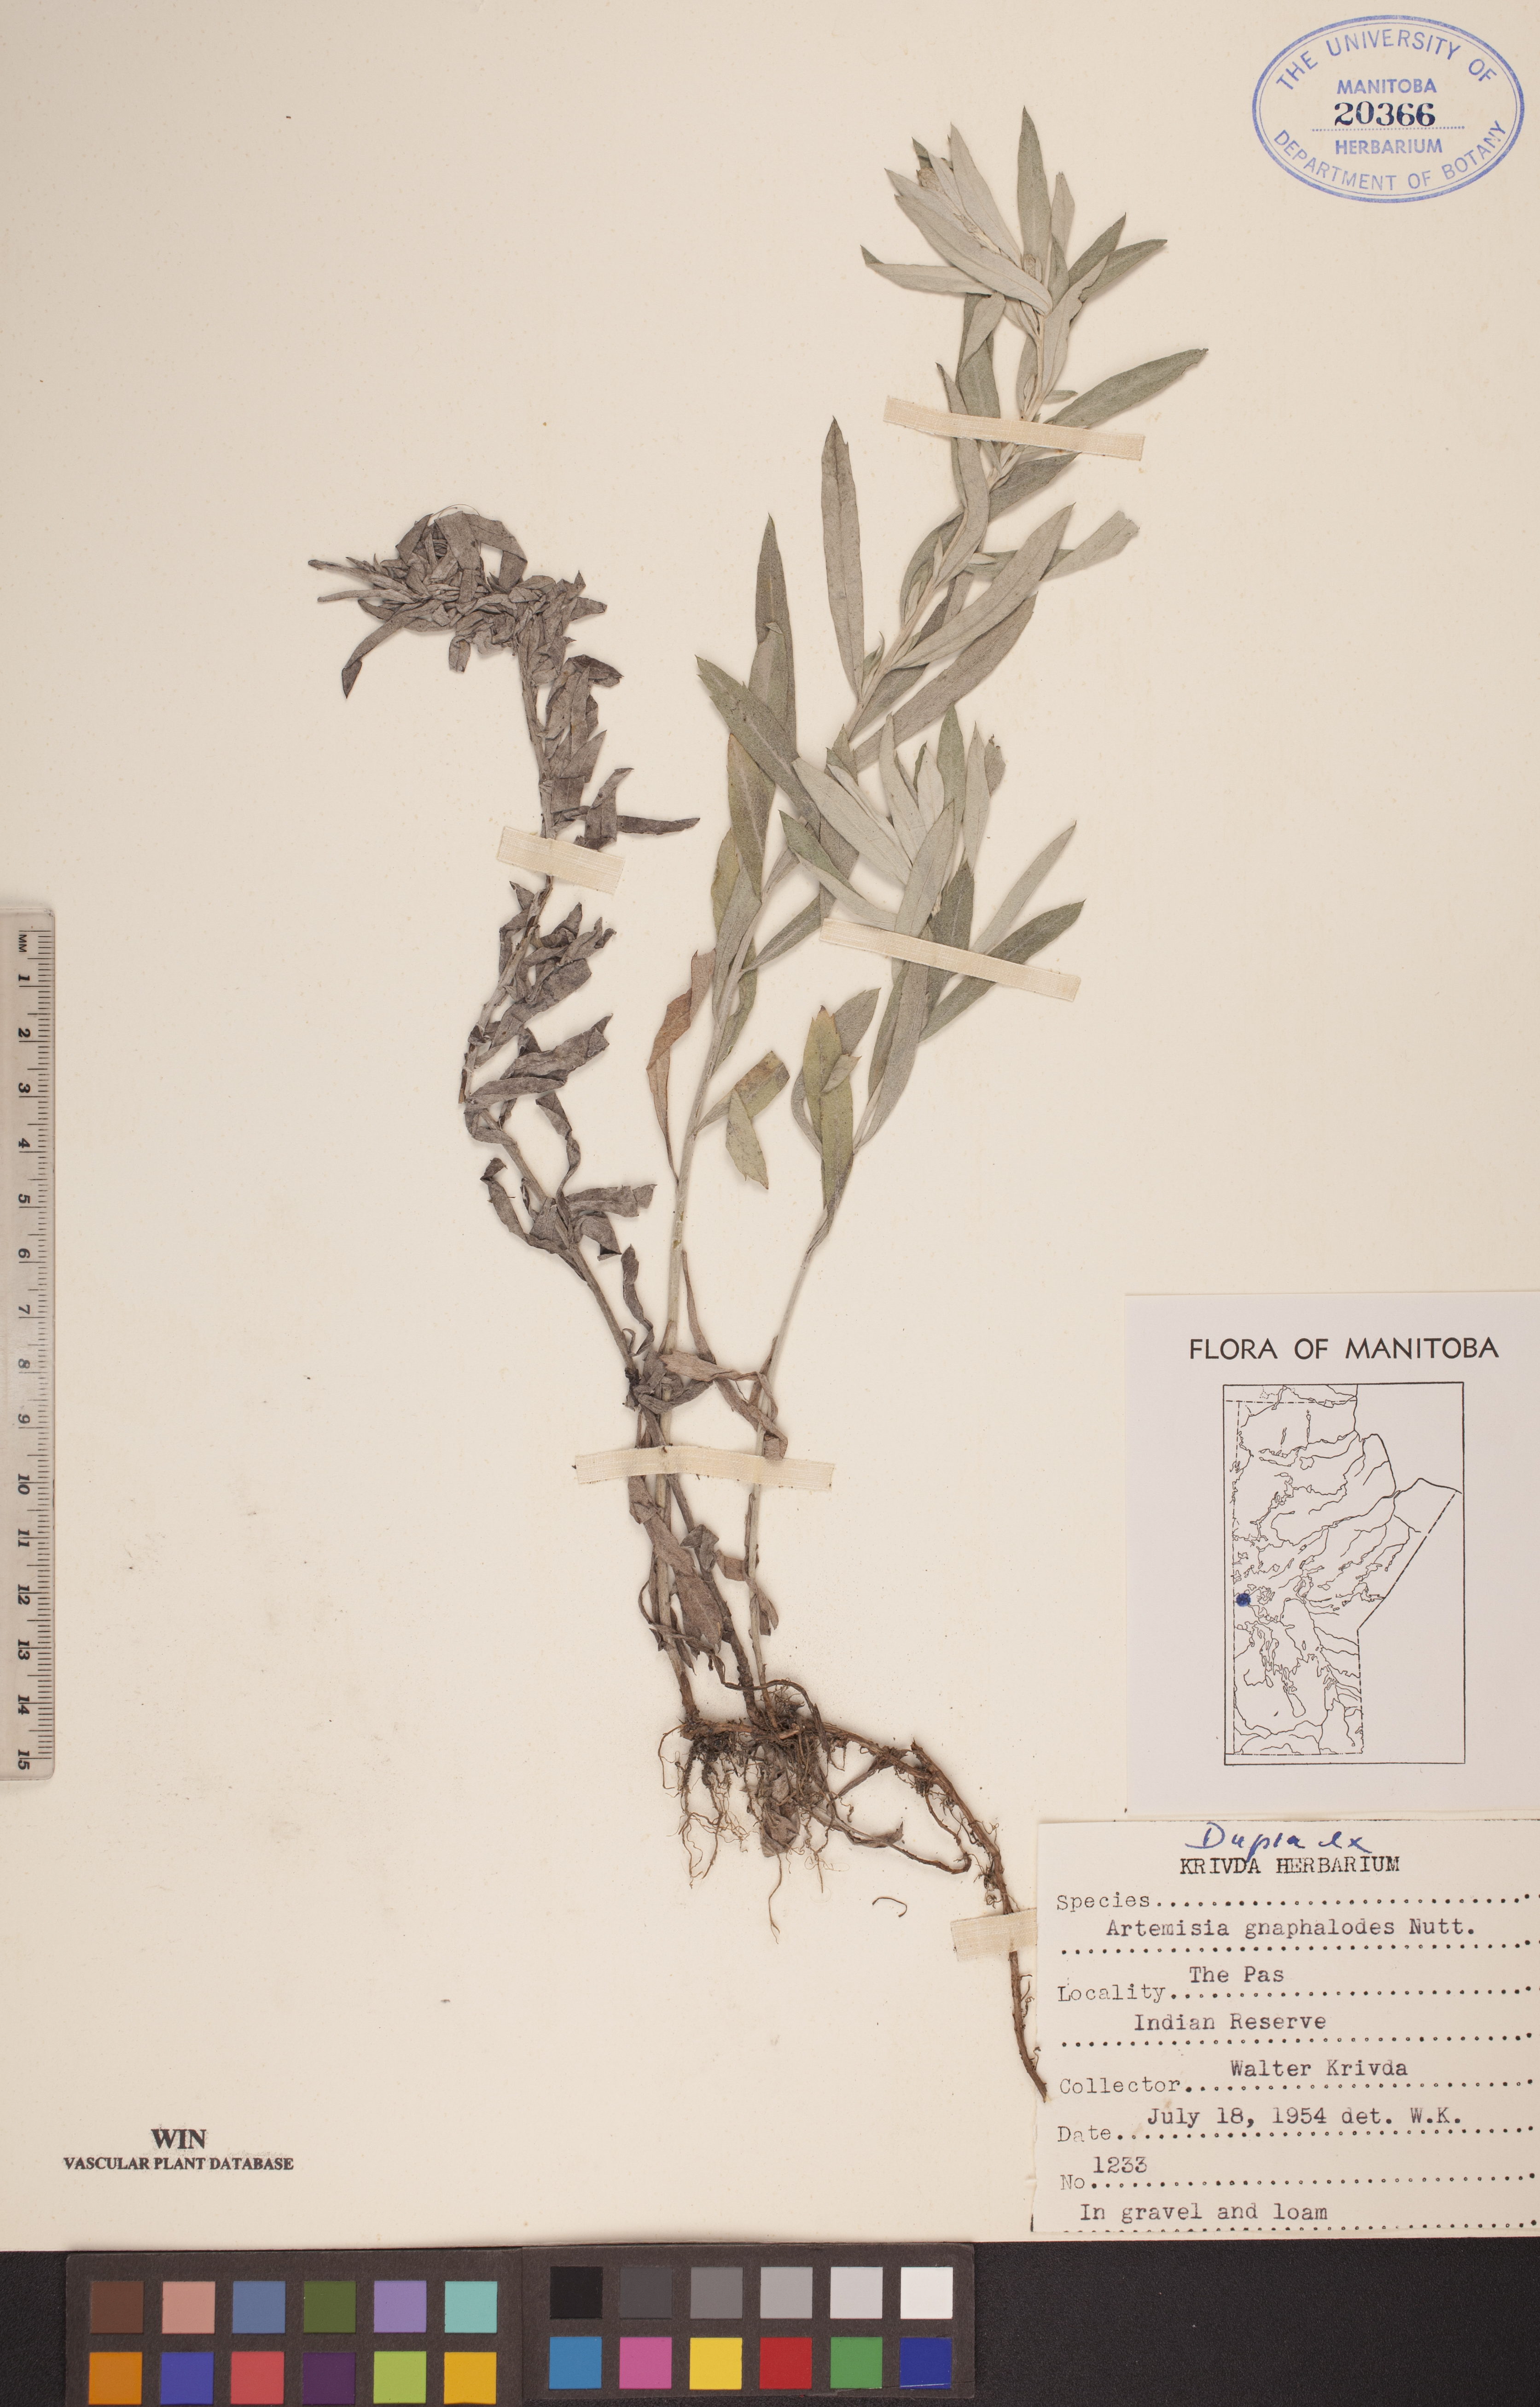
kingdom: Plantae
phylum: Tracheophyta
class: Magnoliopsida
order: Asterales
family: Asteraceae
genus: Artemisia
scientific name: Artemisia ludoviciana
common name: Western mugwort
